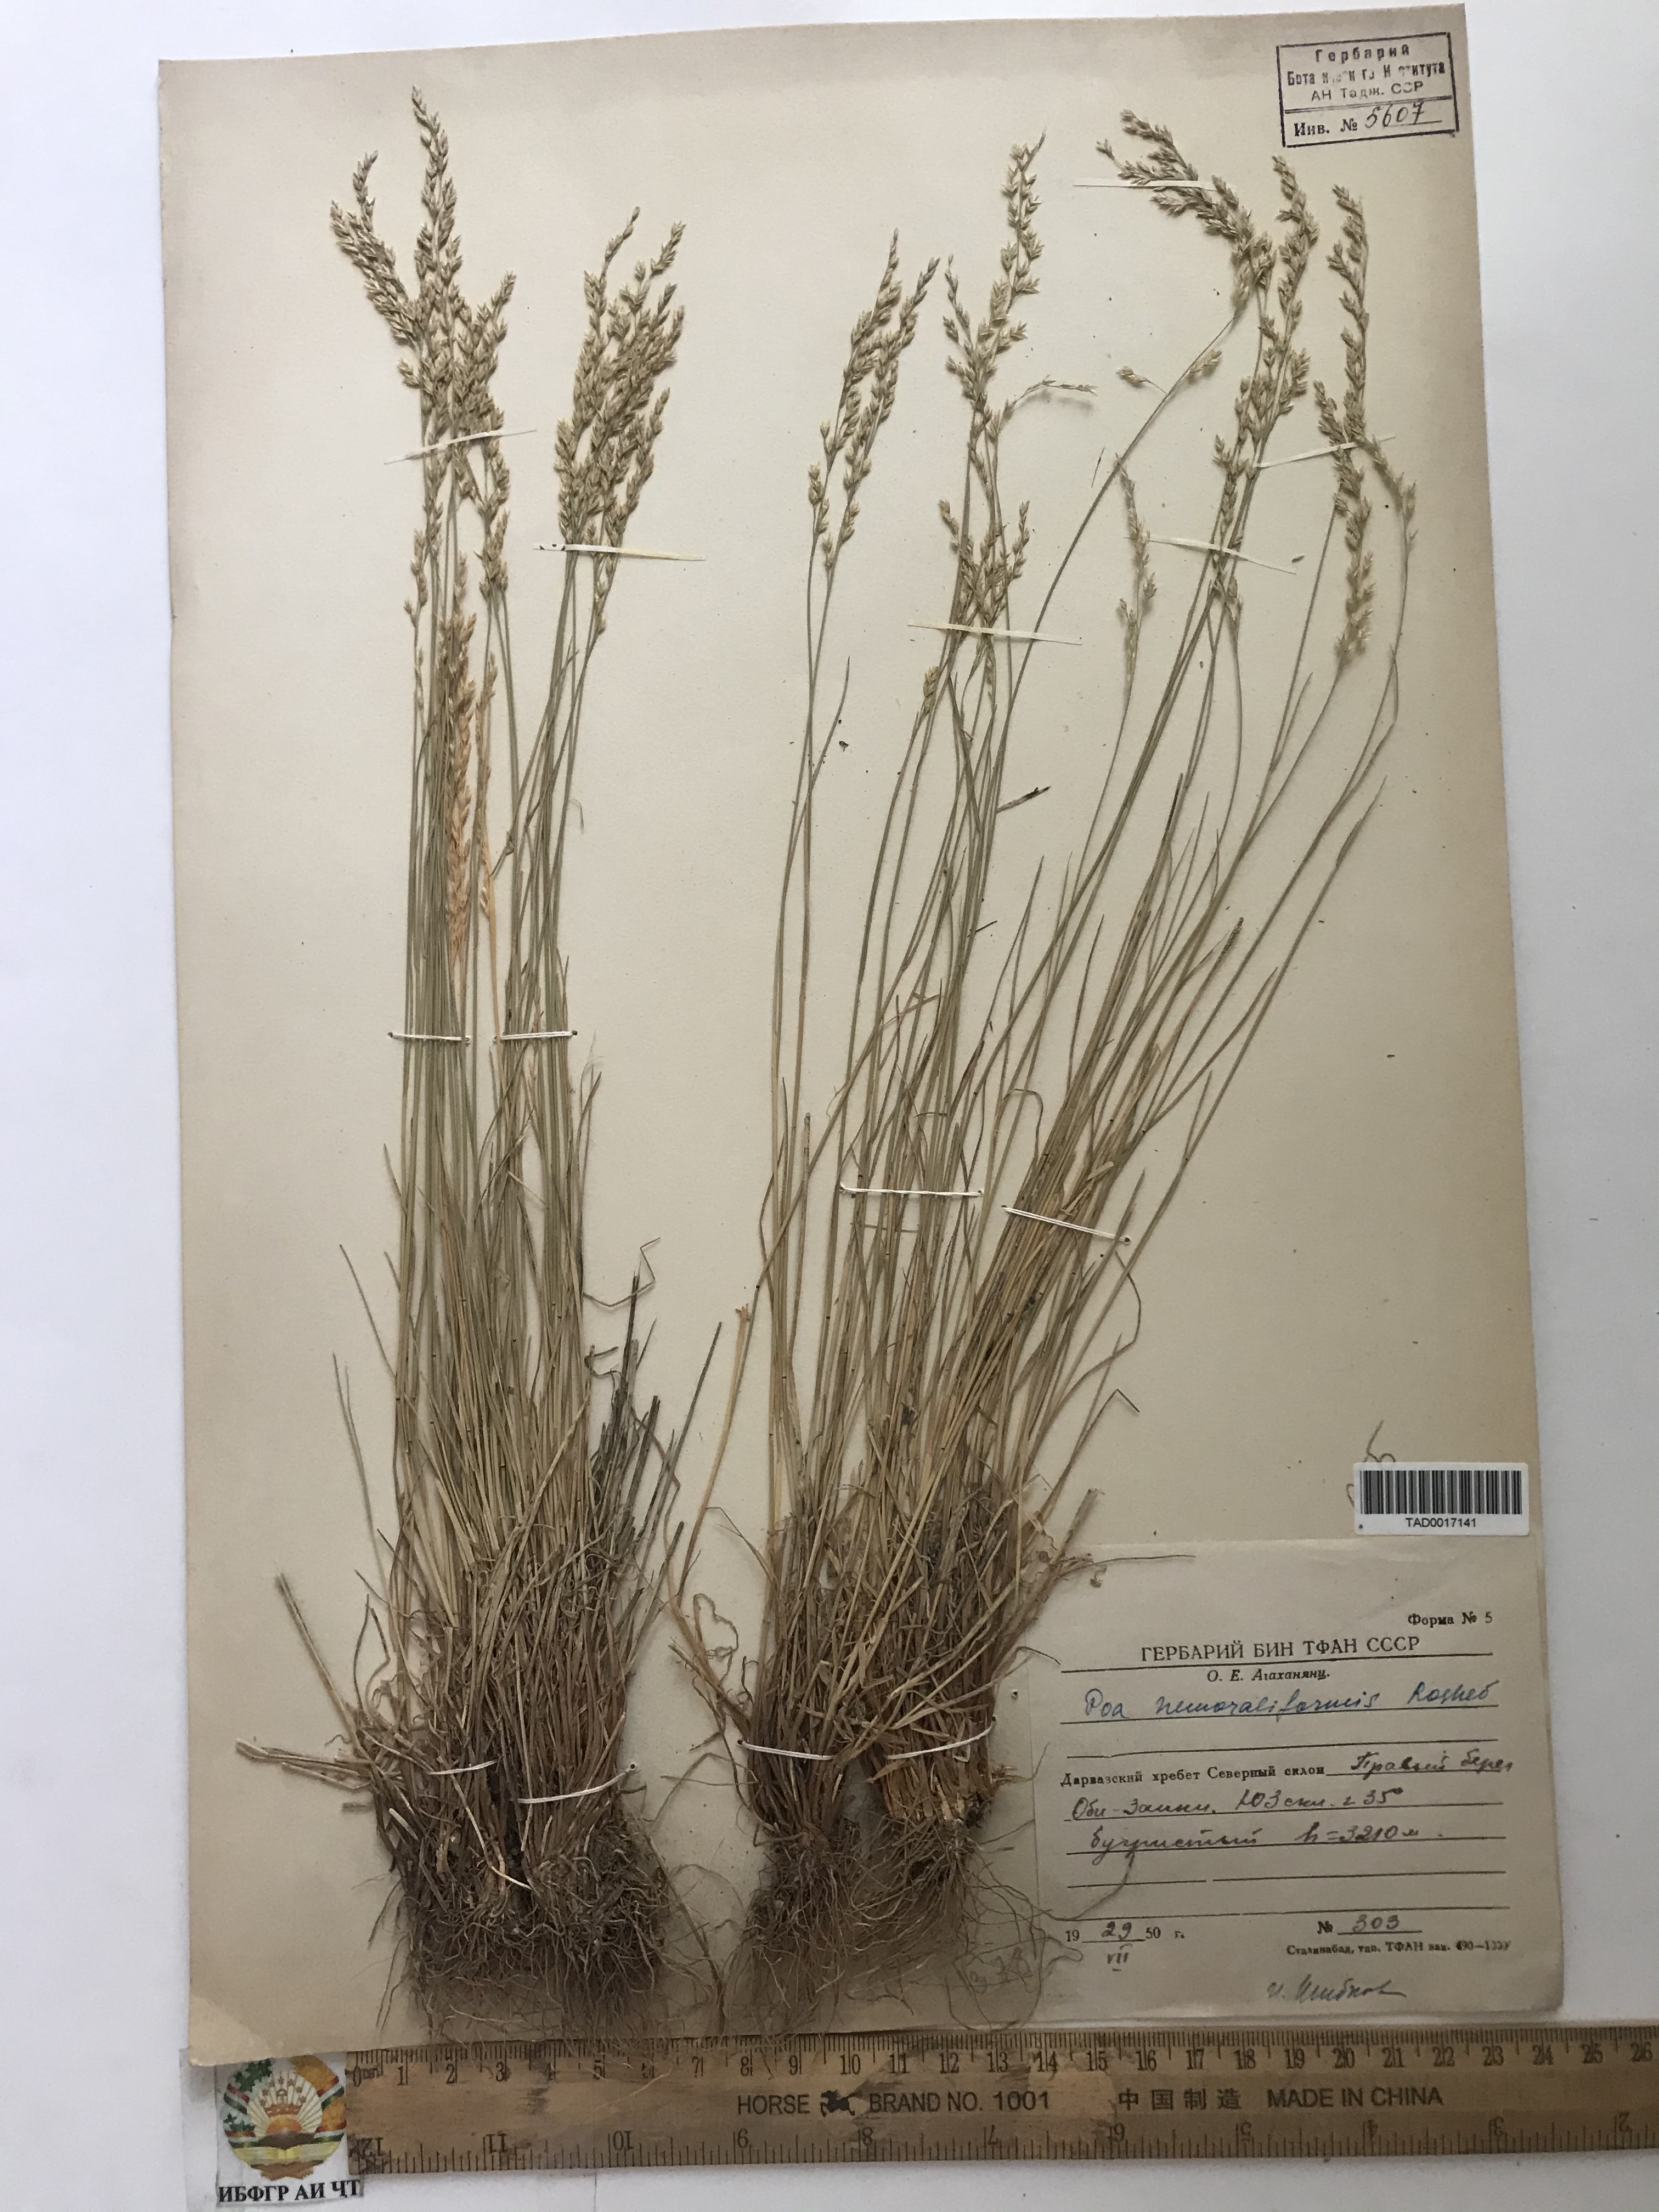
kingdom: Plantae
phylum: Tracheophyta
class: Liliopsida
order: Poales
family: Poaceae
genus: Poa
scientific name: Poa urssulensis
